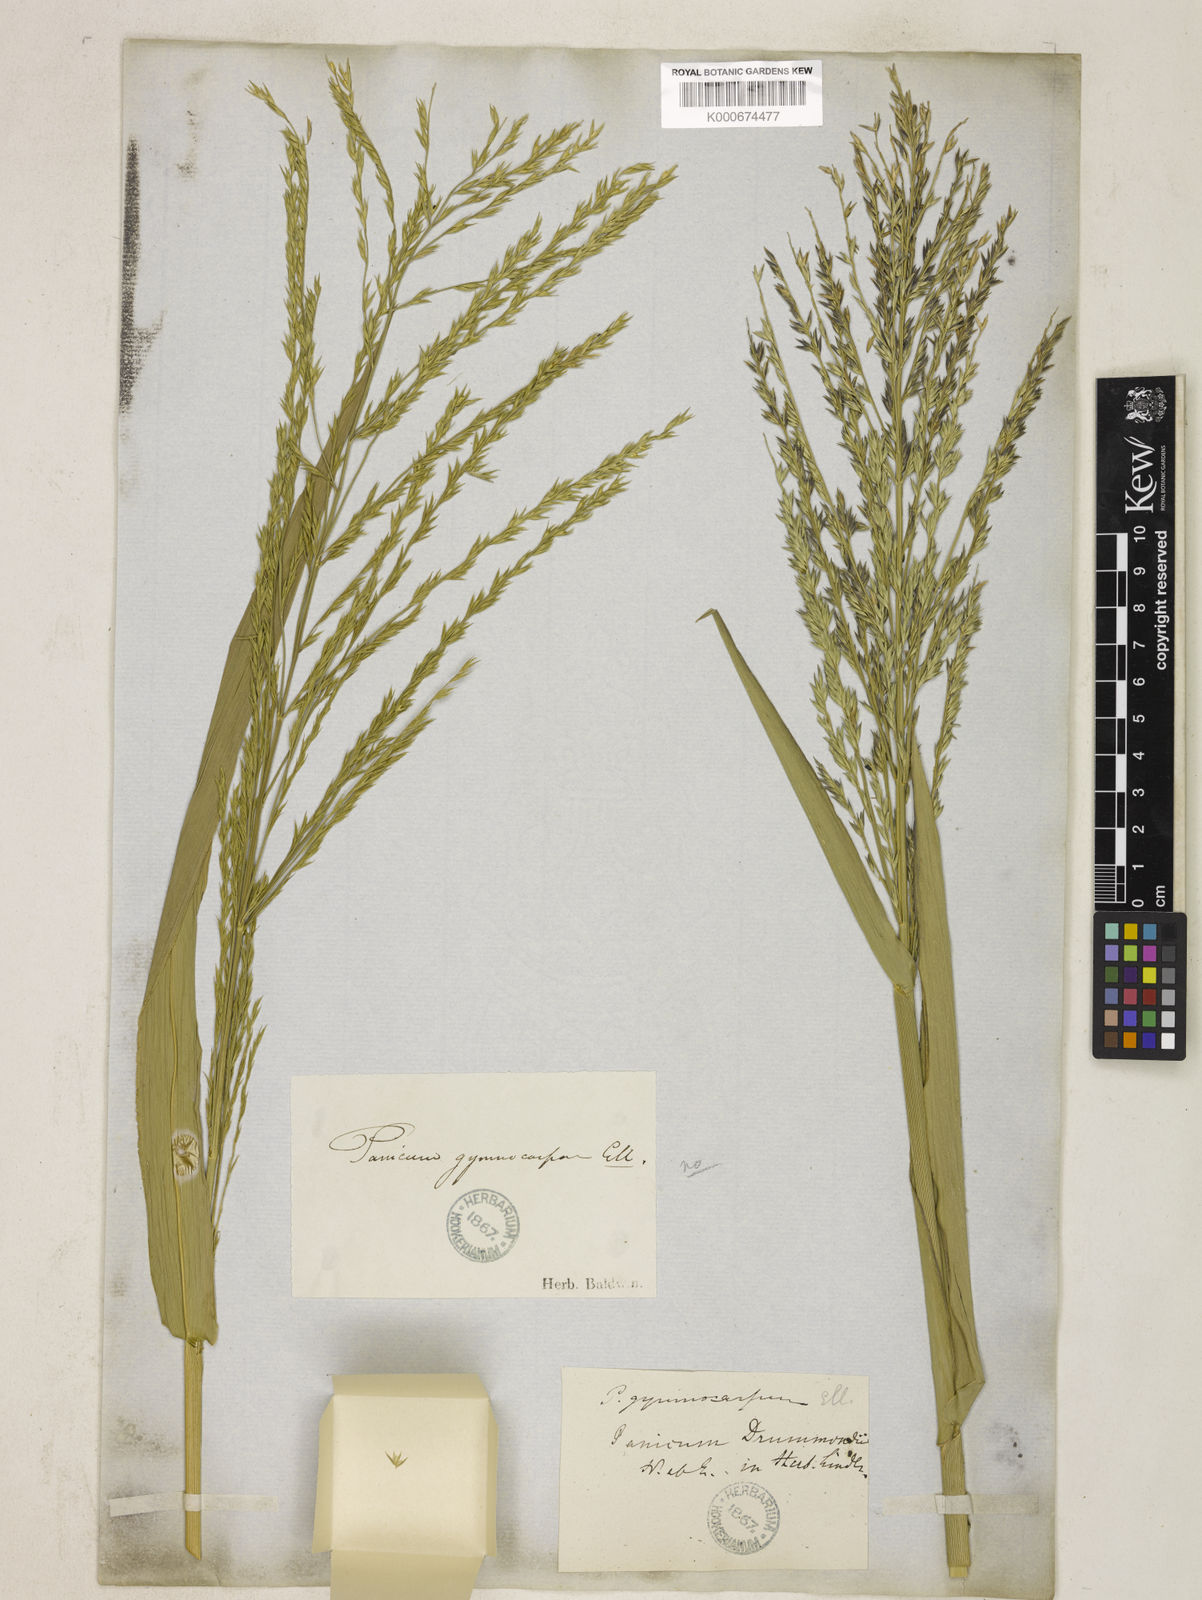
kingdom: Plantae
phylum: Tracheophyta
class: Liliopsida
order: Poales
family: Poaceae
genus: Panicum
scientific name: Panicum gymnocarpon
